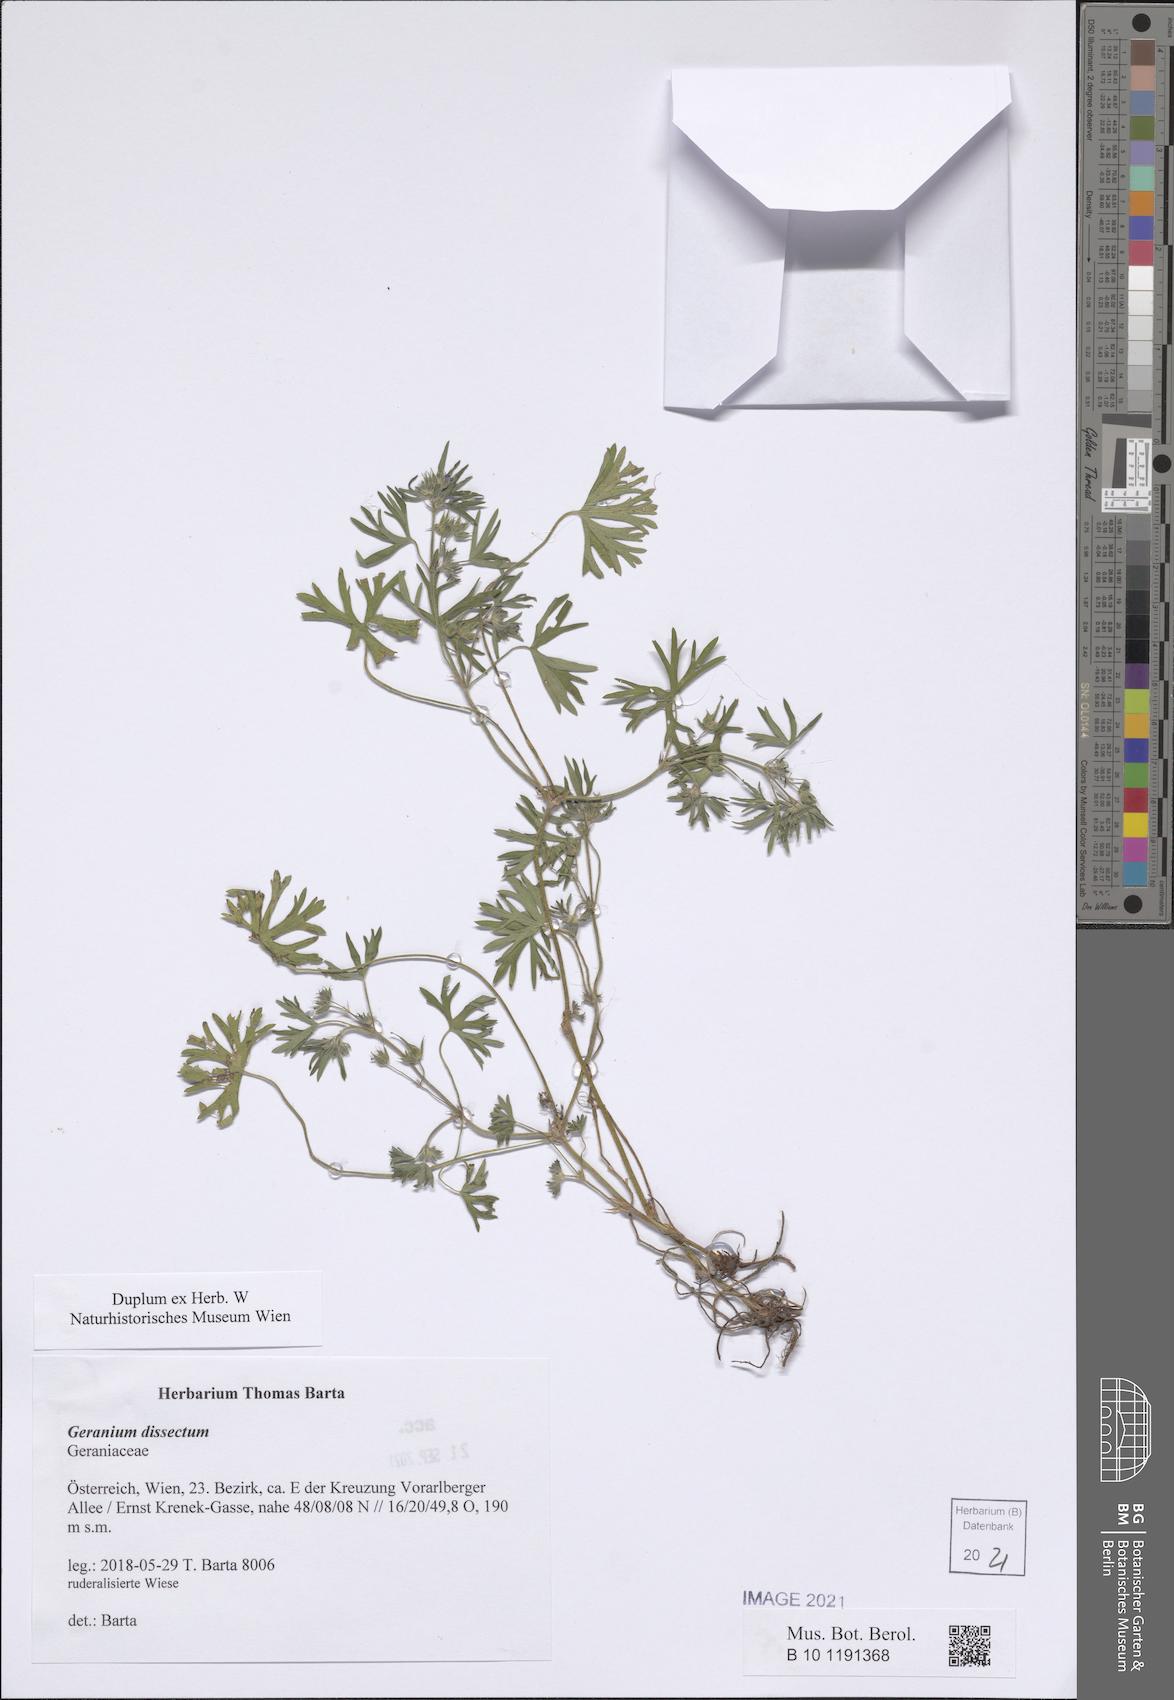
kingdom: Plantae
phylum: Tracheophyta
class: Magnoliopsida
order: Geraniales
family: Geraniaceae
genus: Geranium
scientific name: Geranium dissectum
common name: Cut-leaved crane's-bill
